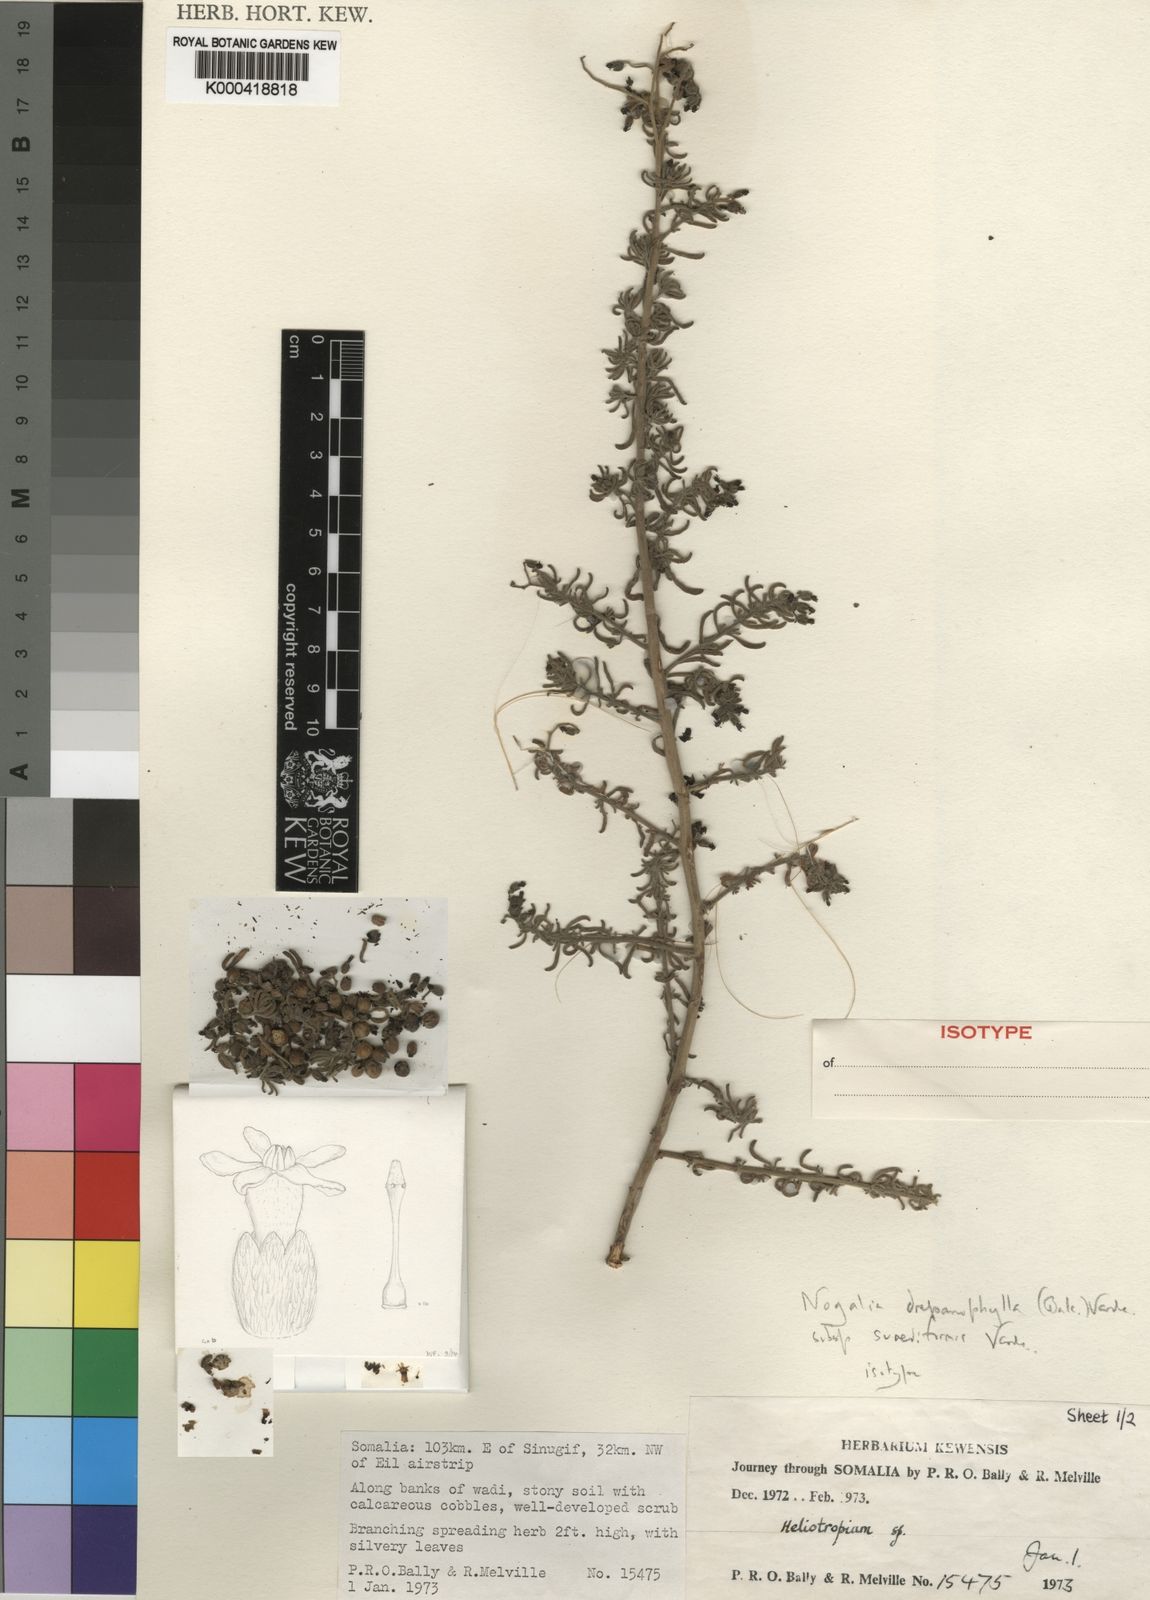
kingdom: Plantae
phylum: Tracheophyta
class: Magnoliopsida
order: Boraginales
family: Heliotropiaceae
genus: Heliotropium
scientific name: Heliotropium drepanophyllum
